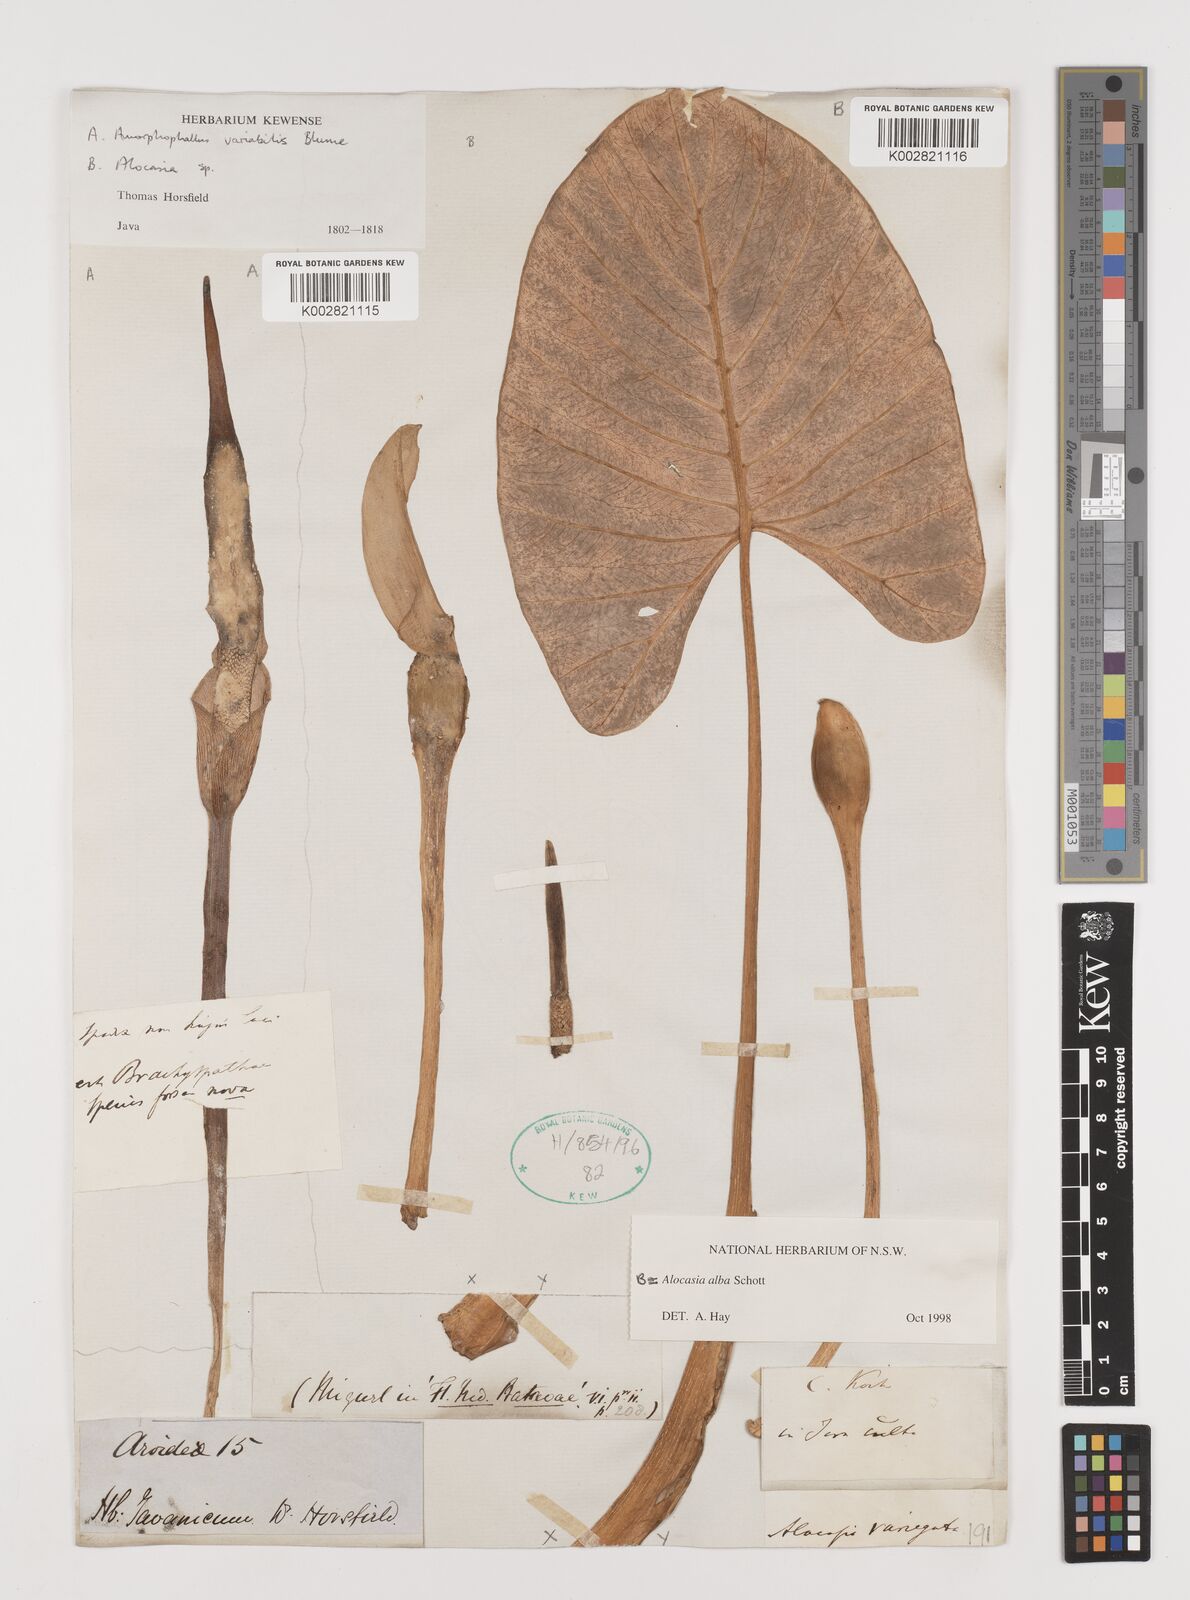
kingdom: Plantae
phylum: Tracheophyta
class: Liliopsida
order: Alismatales
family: Araceae
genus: Alocasia
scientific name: Alocasia alba
